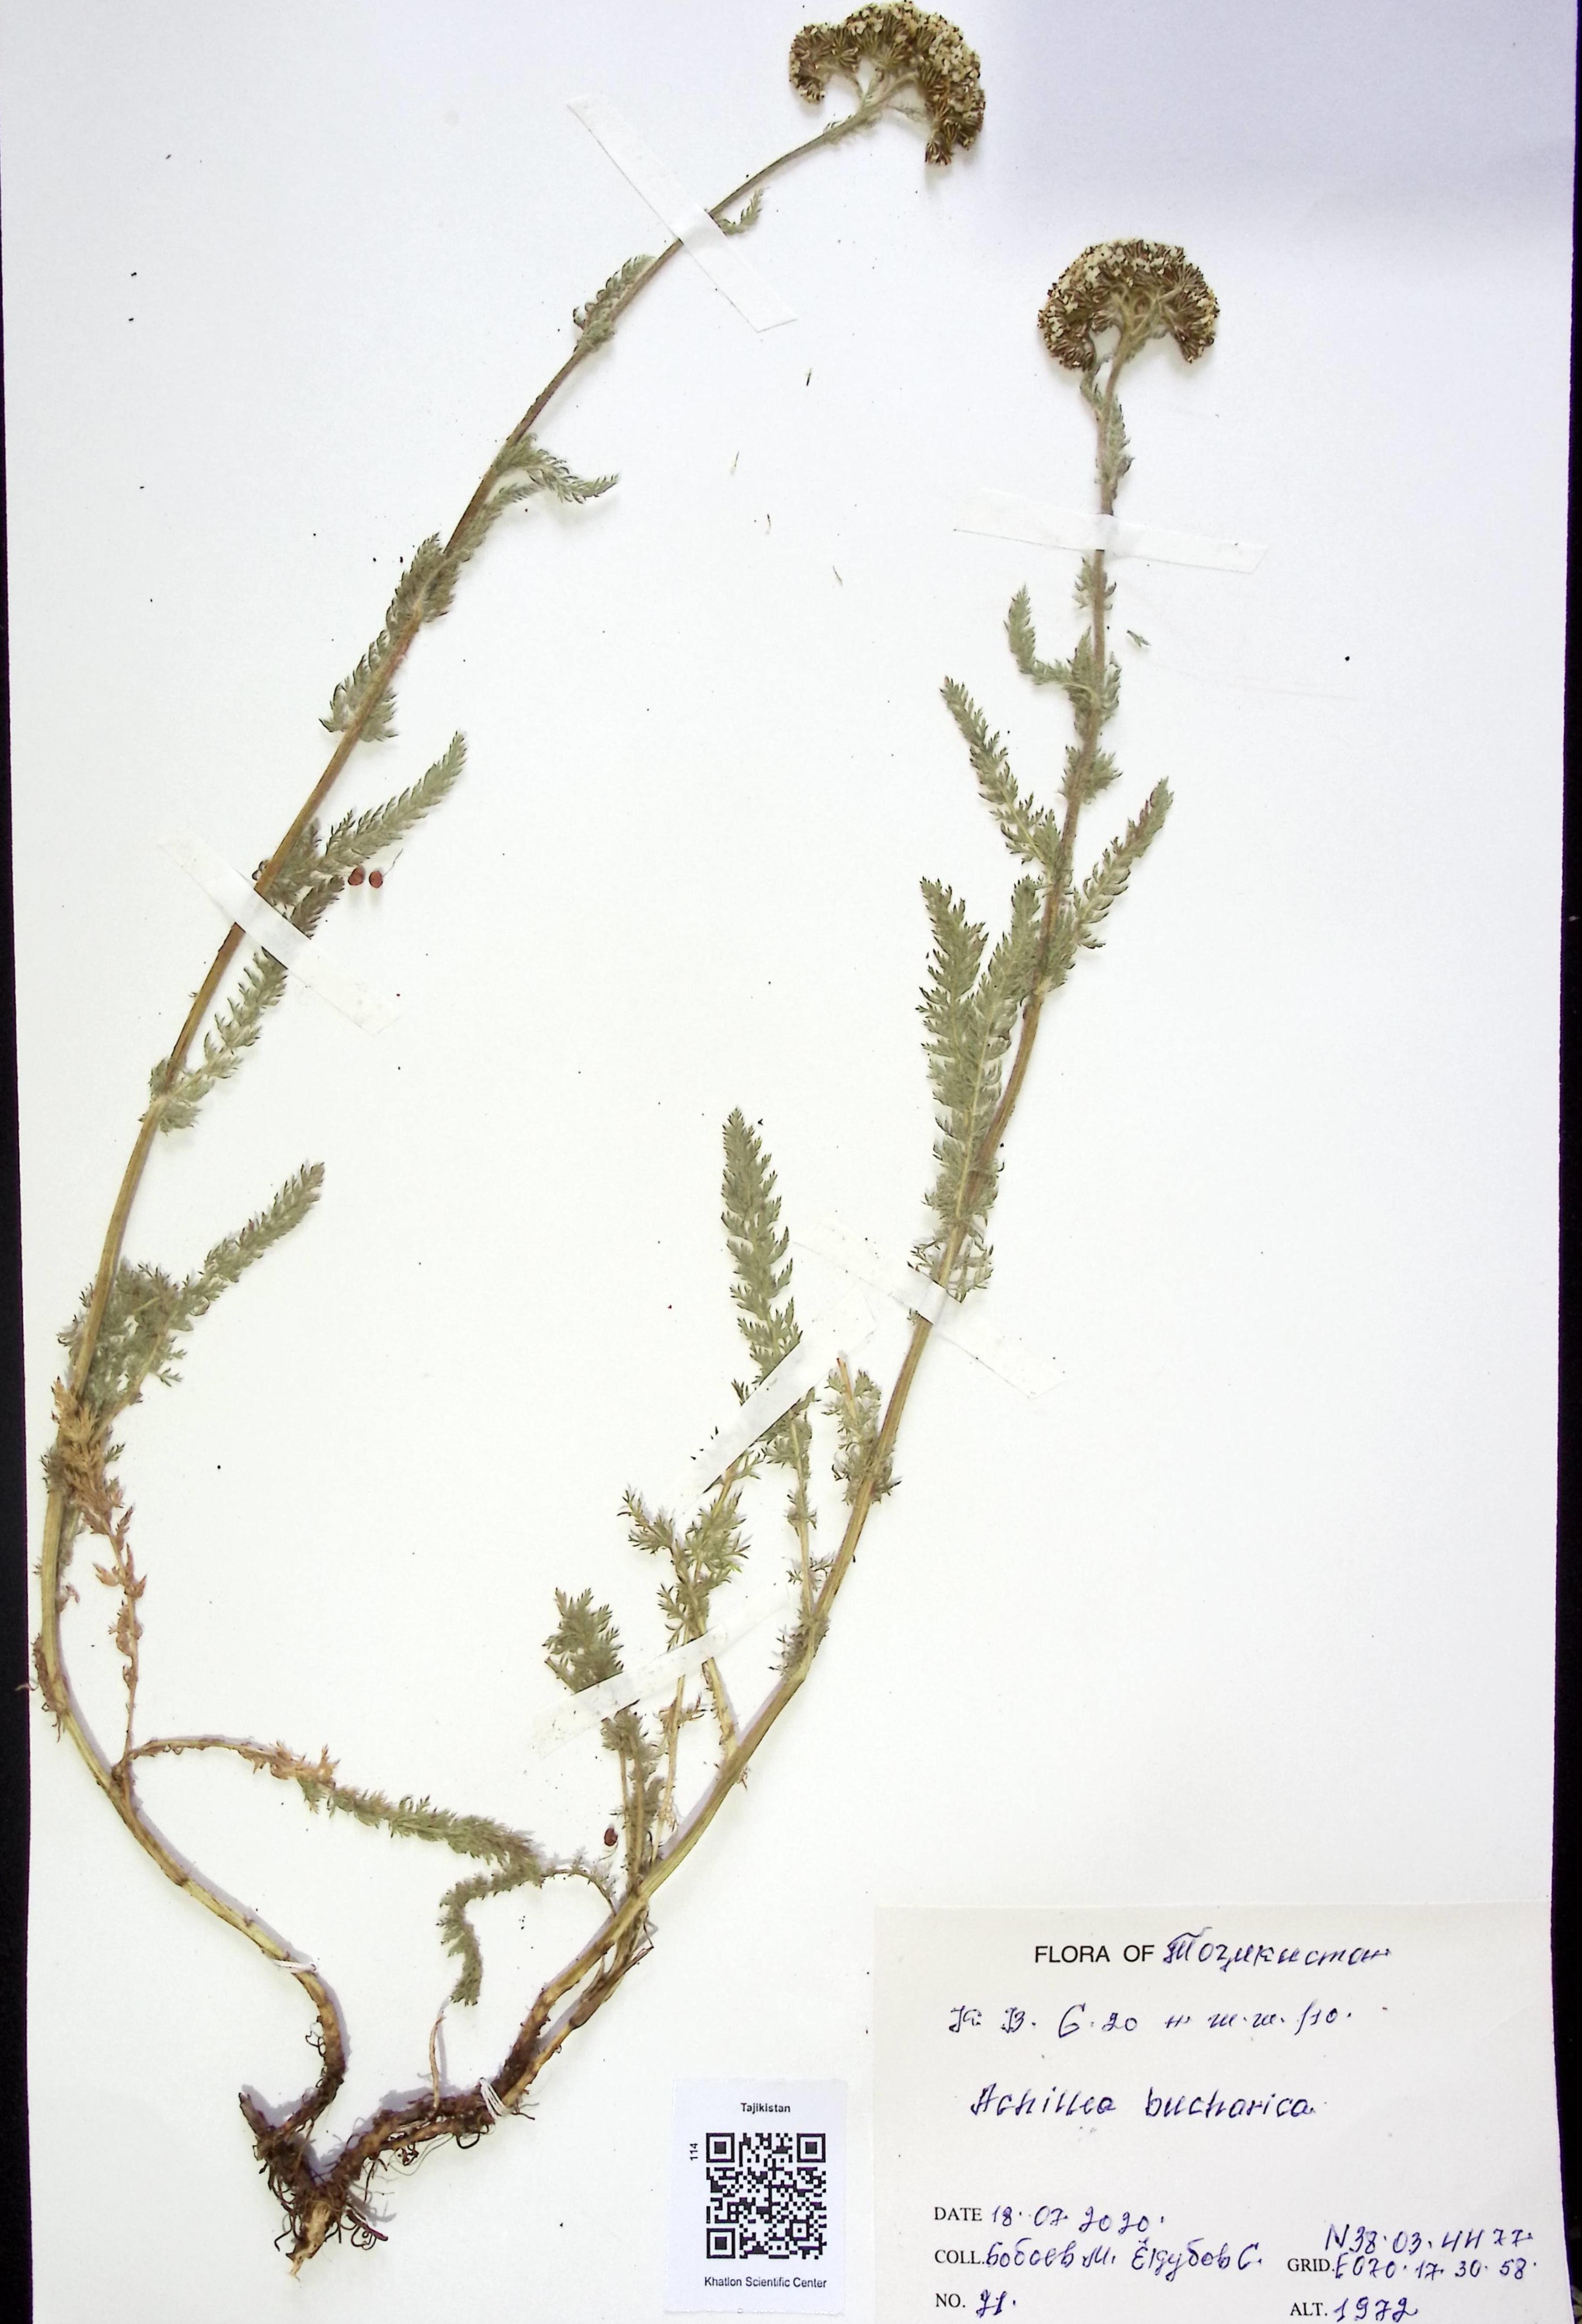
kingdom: Plantae
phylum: Tracheophyta
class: Magnoliopsida
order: Asterales
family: Asteraceae
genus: Achillea
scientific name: Achillea bucharica
